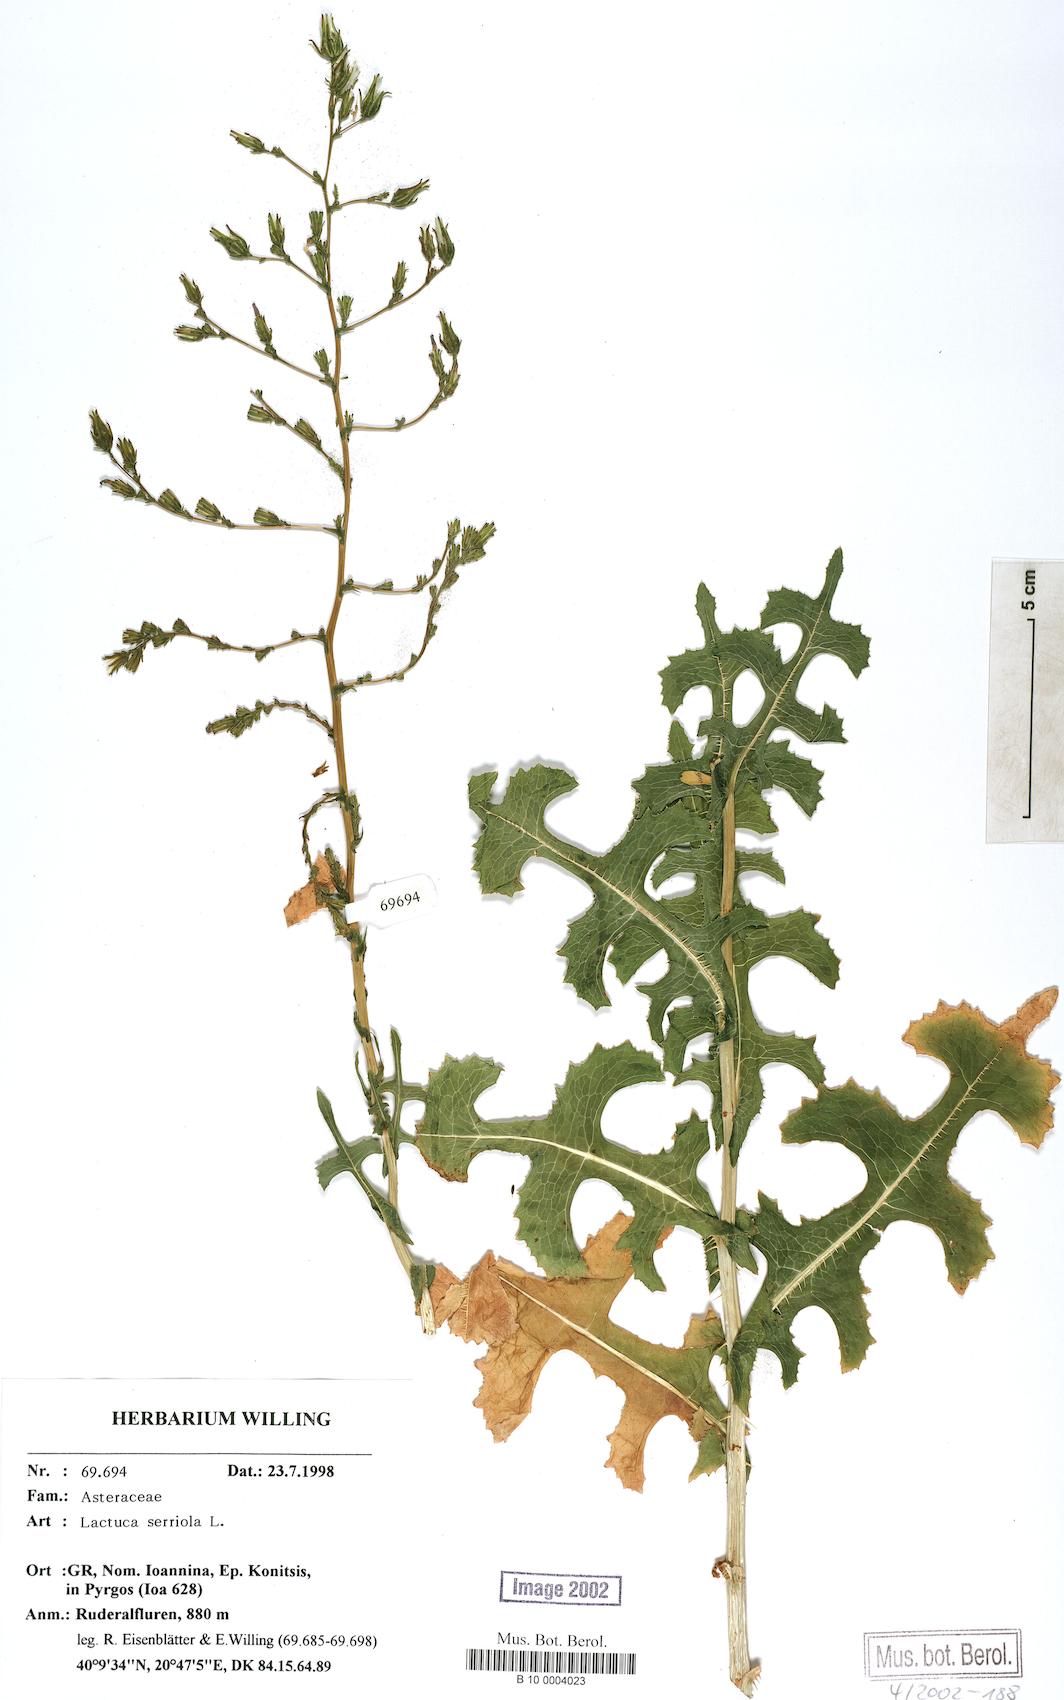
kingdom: Plantae
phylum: Tracheophyta
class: Magnoliopsida
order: Asterales
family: Asteraceae
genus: Lactuca
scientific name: Lactuca serriola
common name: Prickly lettuce
